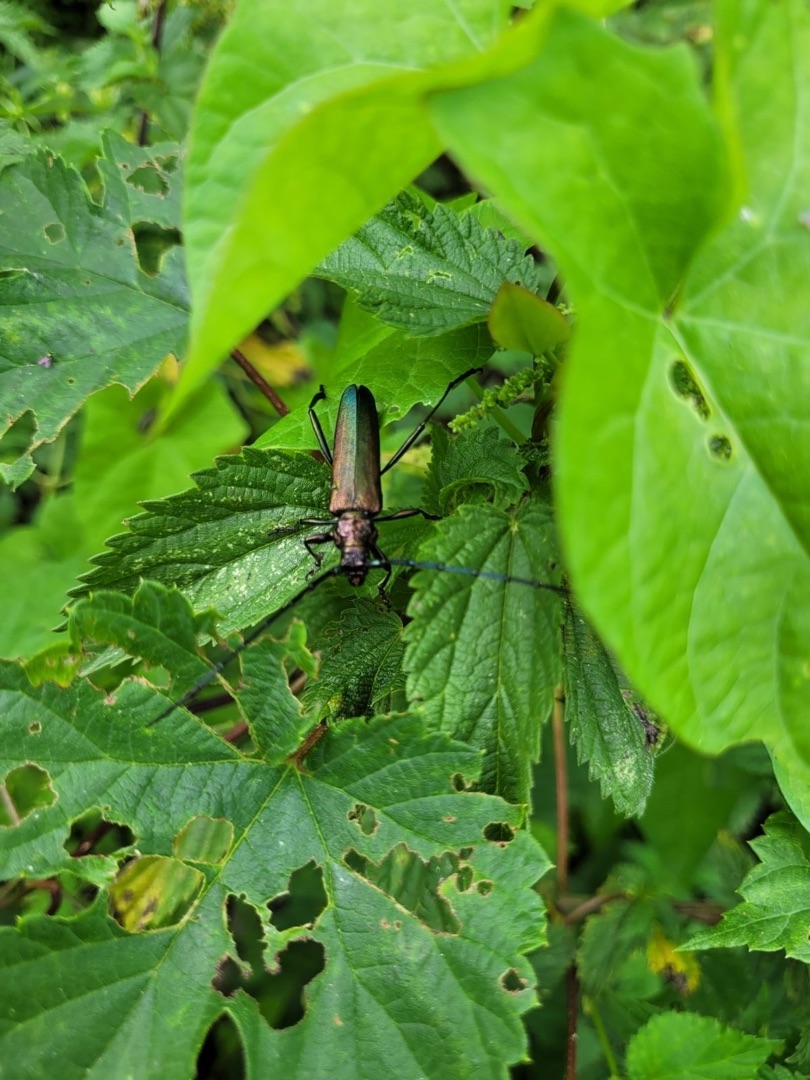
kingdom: Animalia
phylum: Arthropoda
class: Insecta
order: Coleoptera
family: Cerambycidae
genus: Aromia
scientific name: Aromia moschata
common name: Moskusbuk
